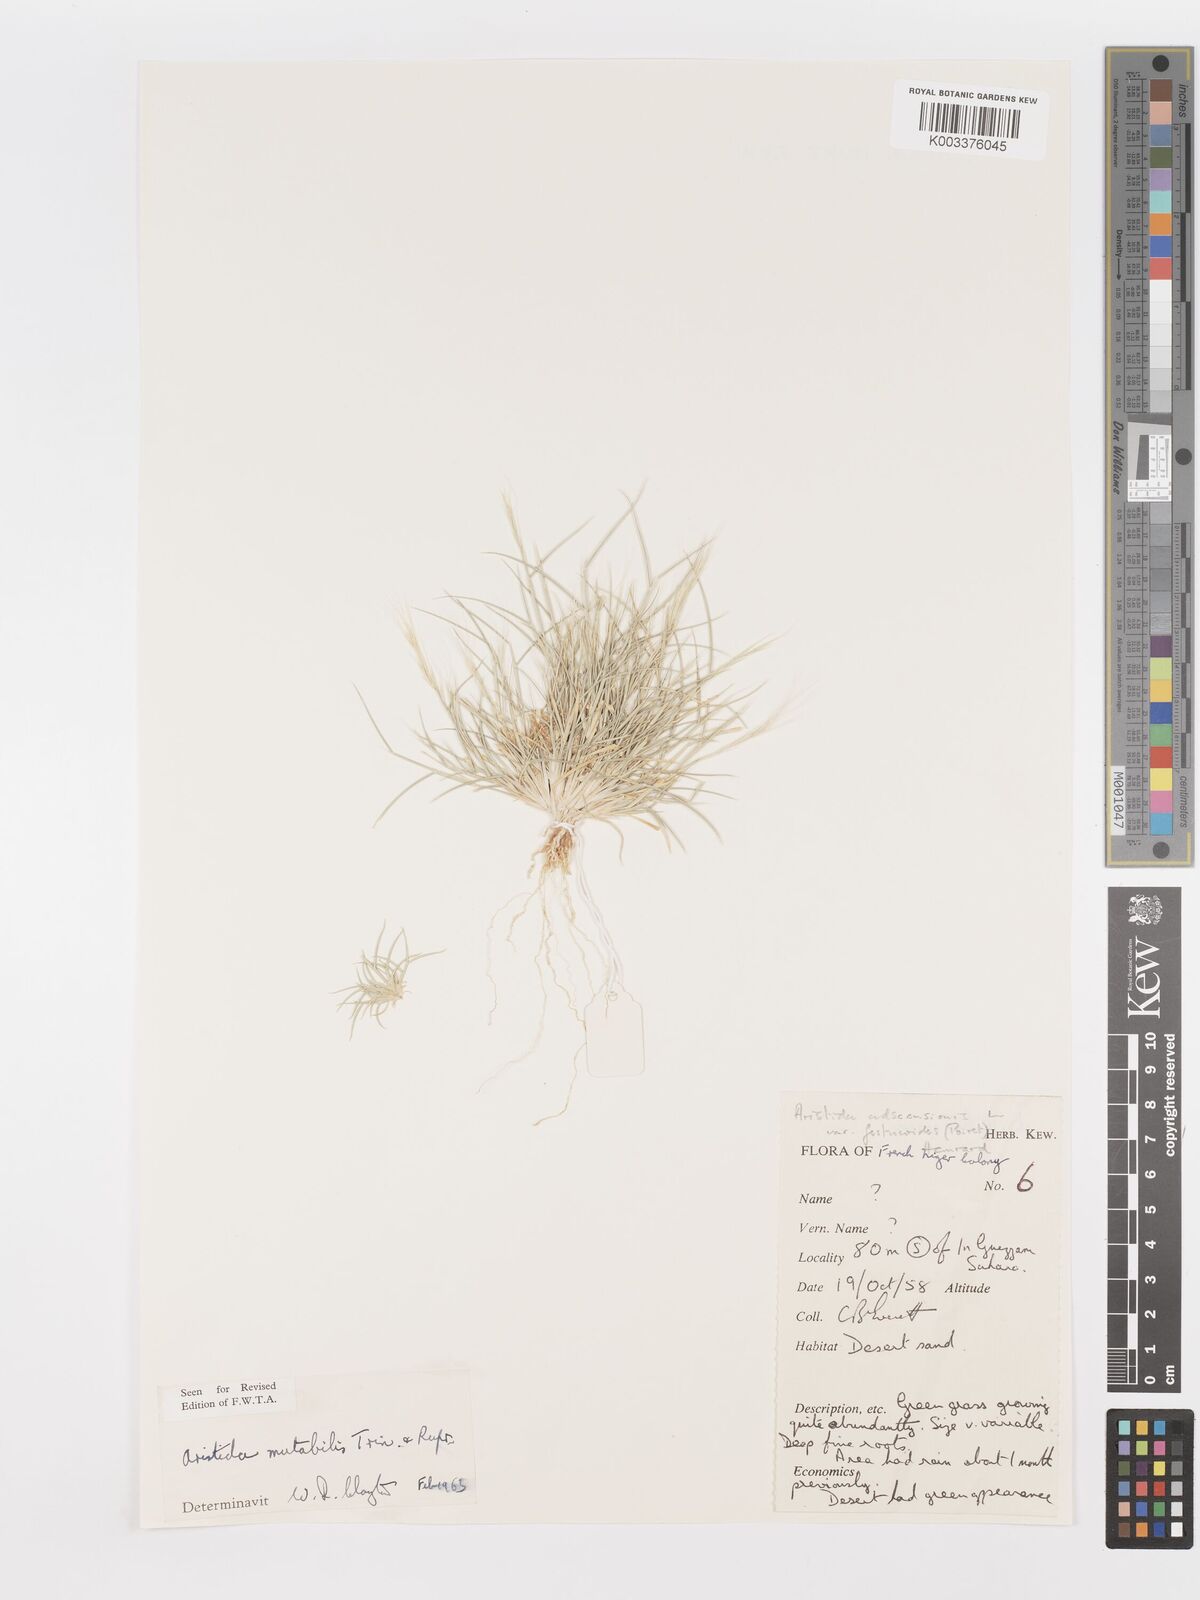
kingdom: Plantae
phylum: Tracheophyta
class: Liliopsida
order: Poales
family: Poaceae
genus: Aristida
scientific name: Aristida mutabilis
